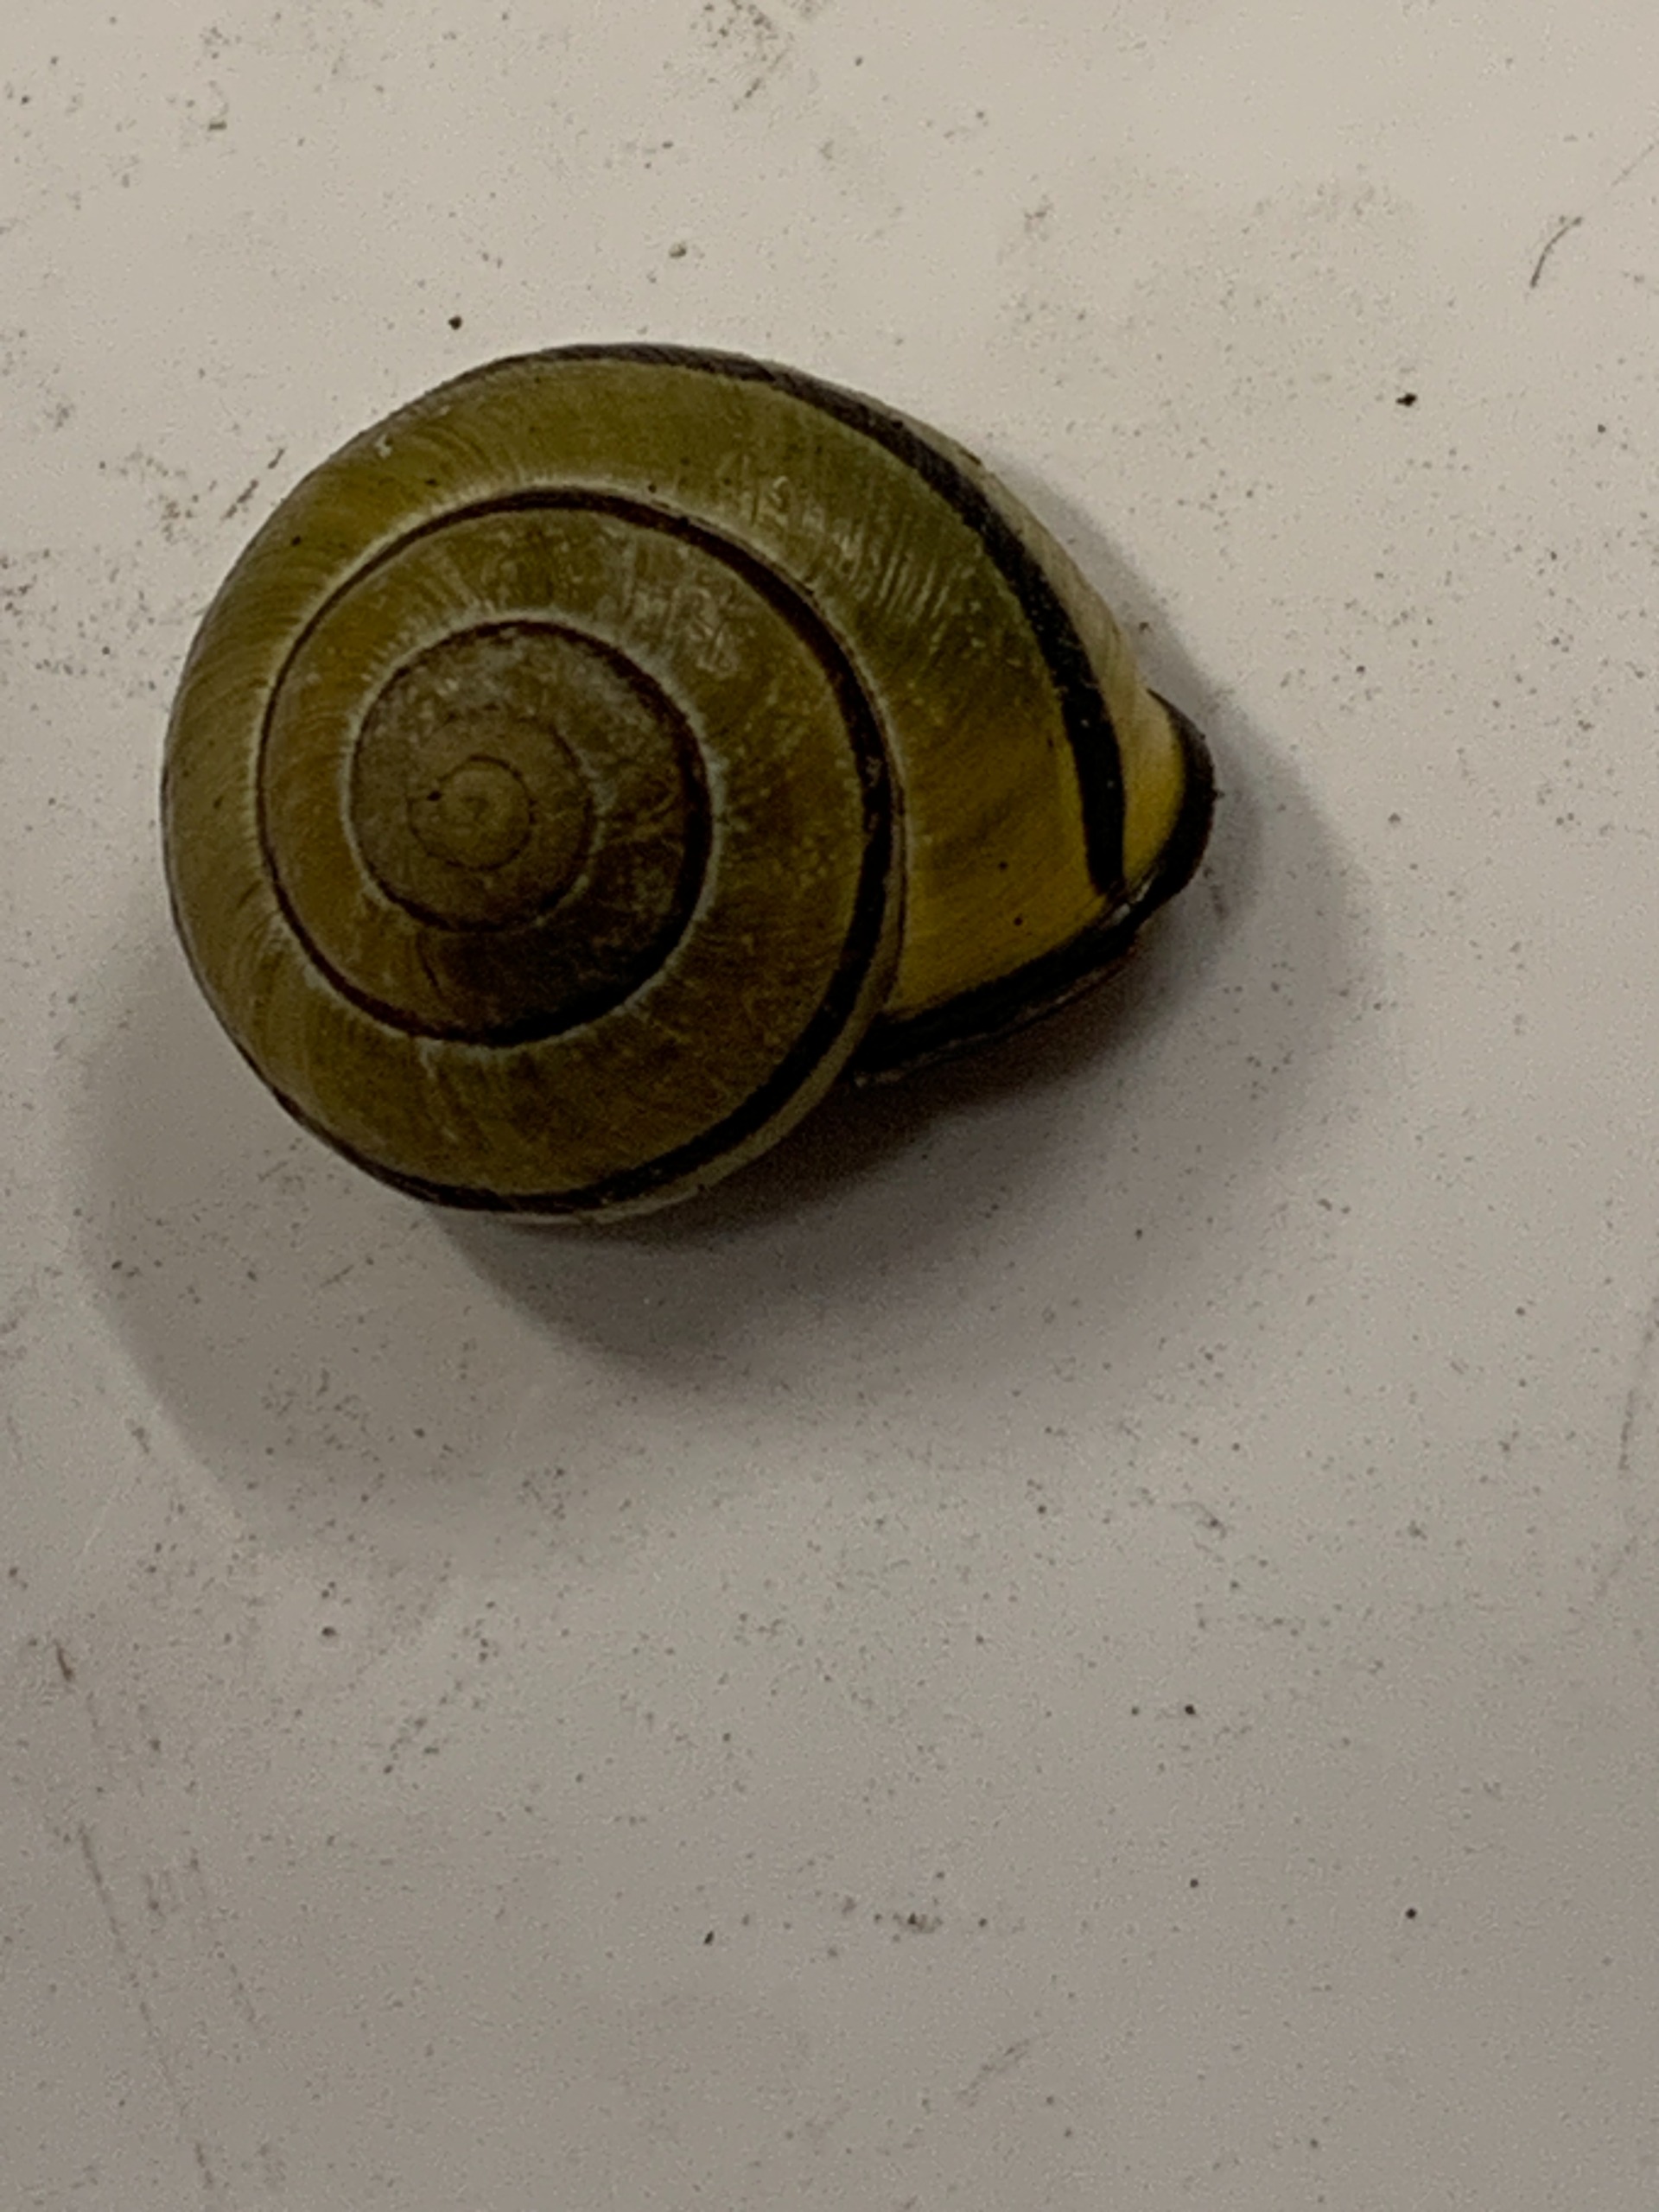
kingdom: Animalia
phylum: Mollusca
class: Gastropoda
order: Stylommatophora
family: Helicidae
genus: Cepaea
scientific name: Cepaea nemoralis
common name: Lundsnegl
